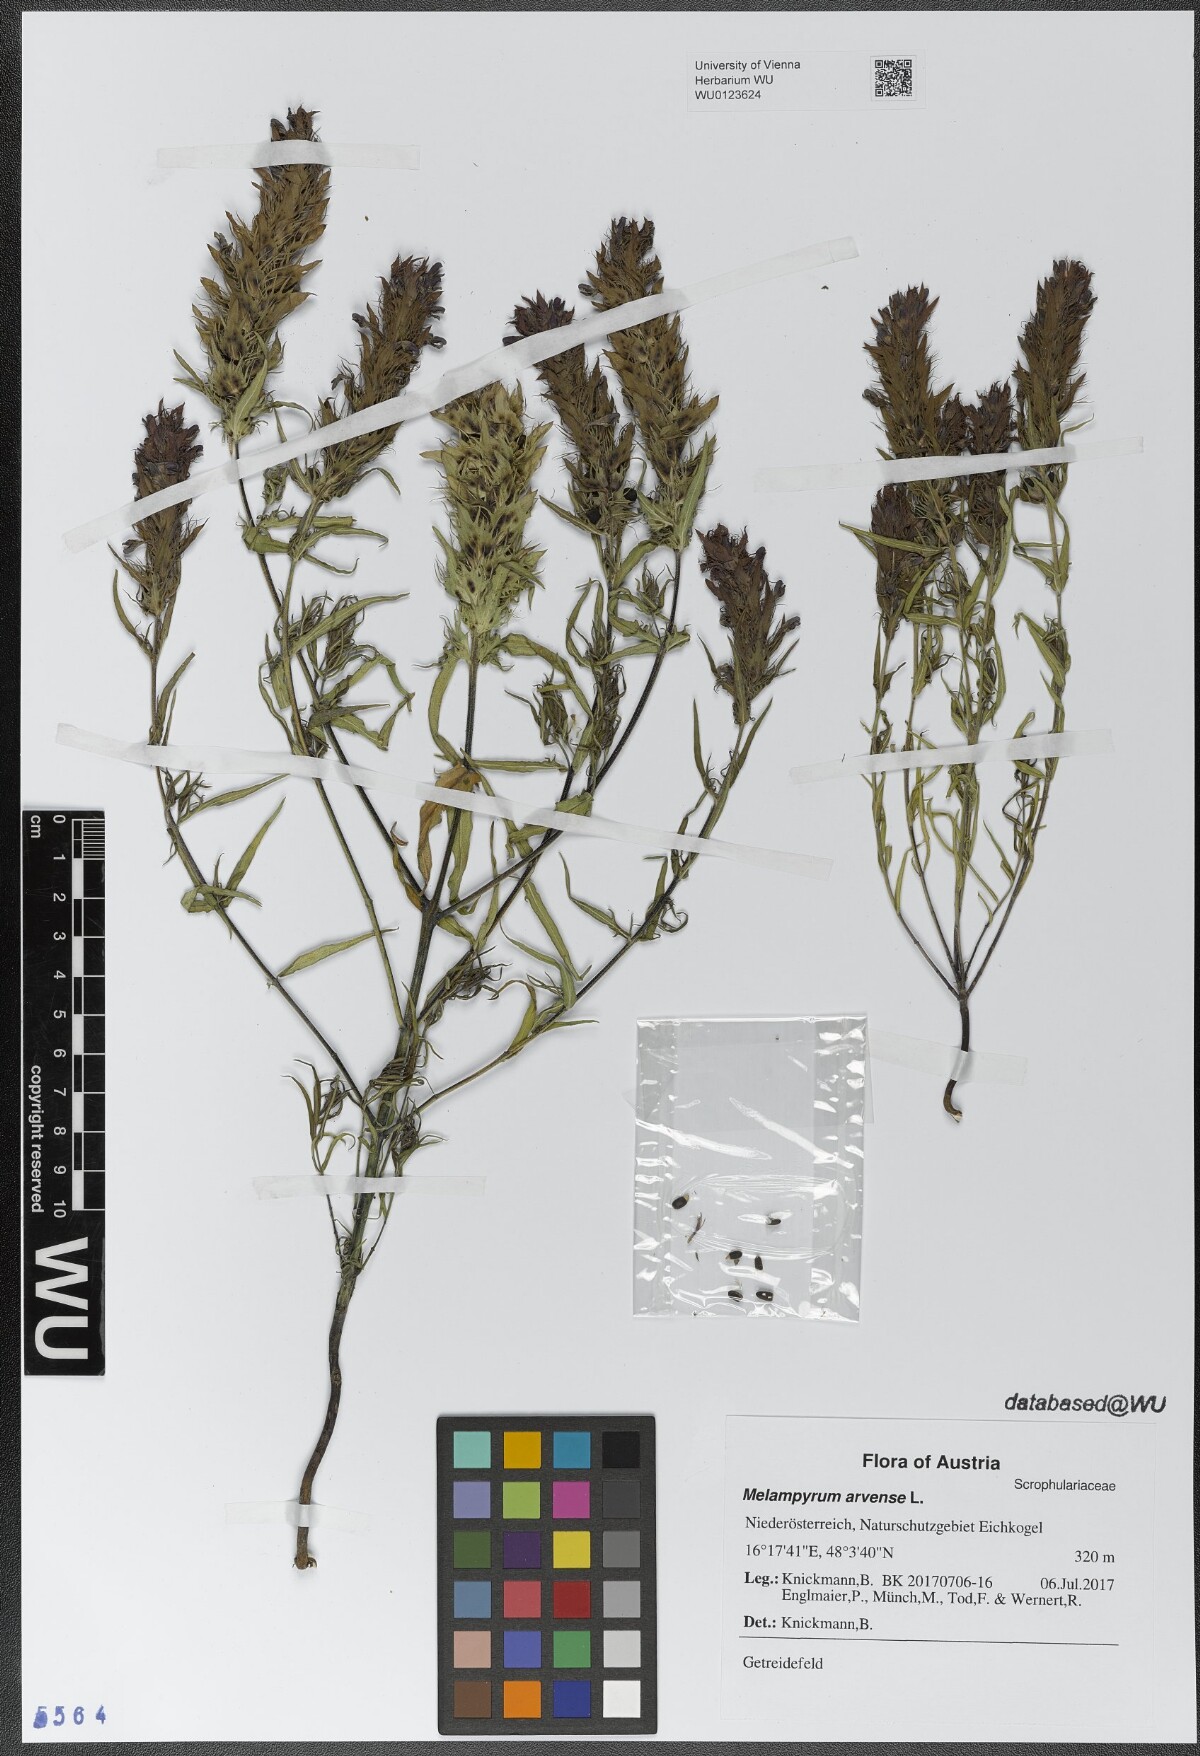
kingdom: Plantae
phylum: Tracheophyta
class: Magnoliopsida
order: Lamiales
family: Orobanchaceae
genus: Melampyrum
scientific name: Melampyrum arvense
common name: Field cow-wheat
